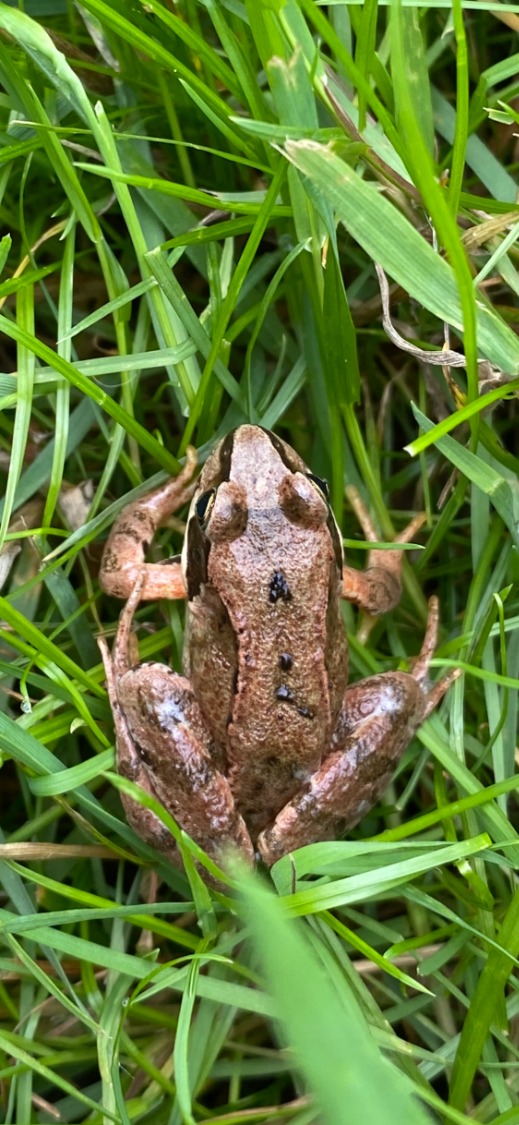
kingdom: Animalia
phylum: Chordata
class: Amphibia
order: Anura
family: Ranidae
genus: Rana
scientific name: Rana temporaria
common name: Butsnudet frø
